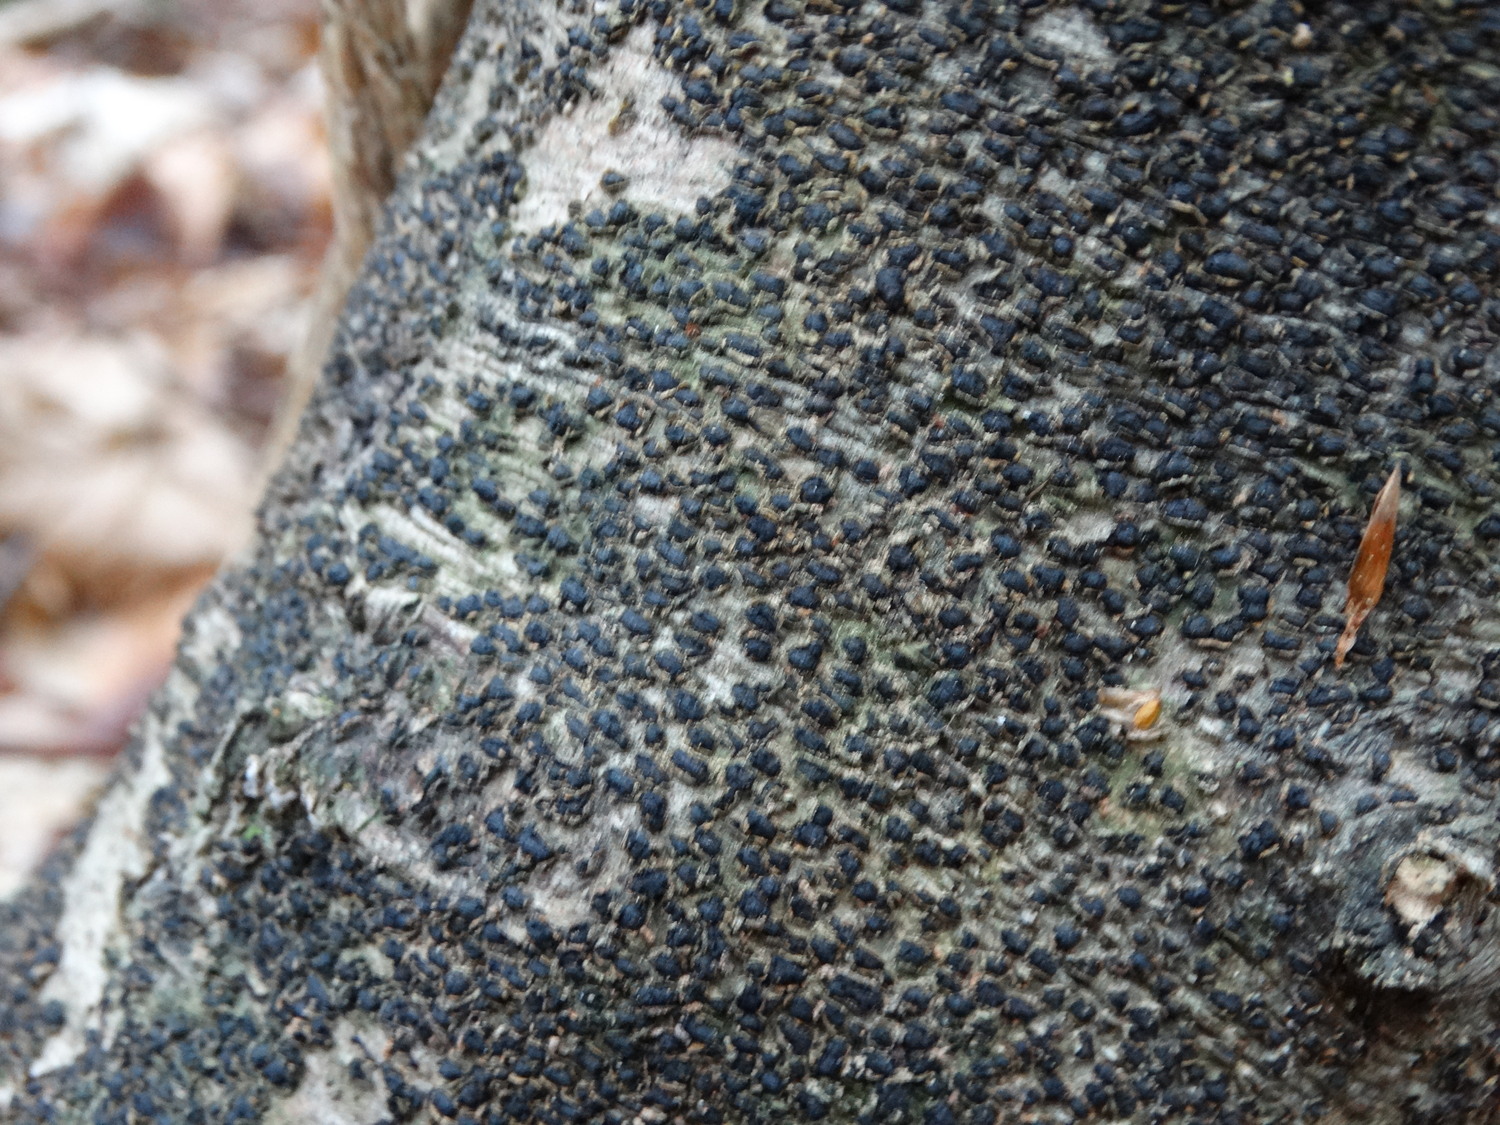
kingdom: Fungi
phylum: Ascomycota
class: Sordariomycetes
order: Xylariales
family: Melogrammataceae
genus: Melogramma
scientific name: Melogramma spiniferum
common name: bøgefod-kulhals
